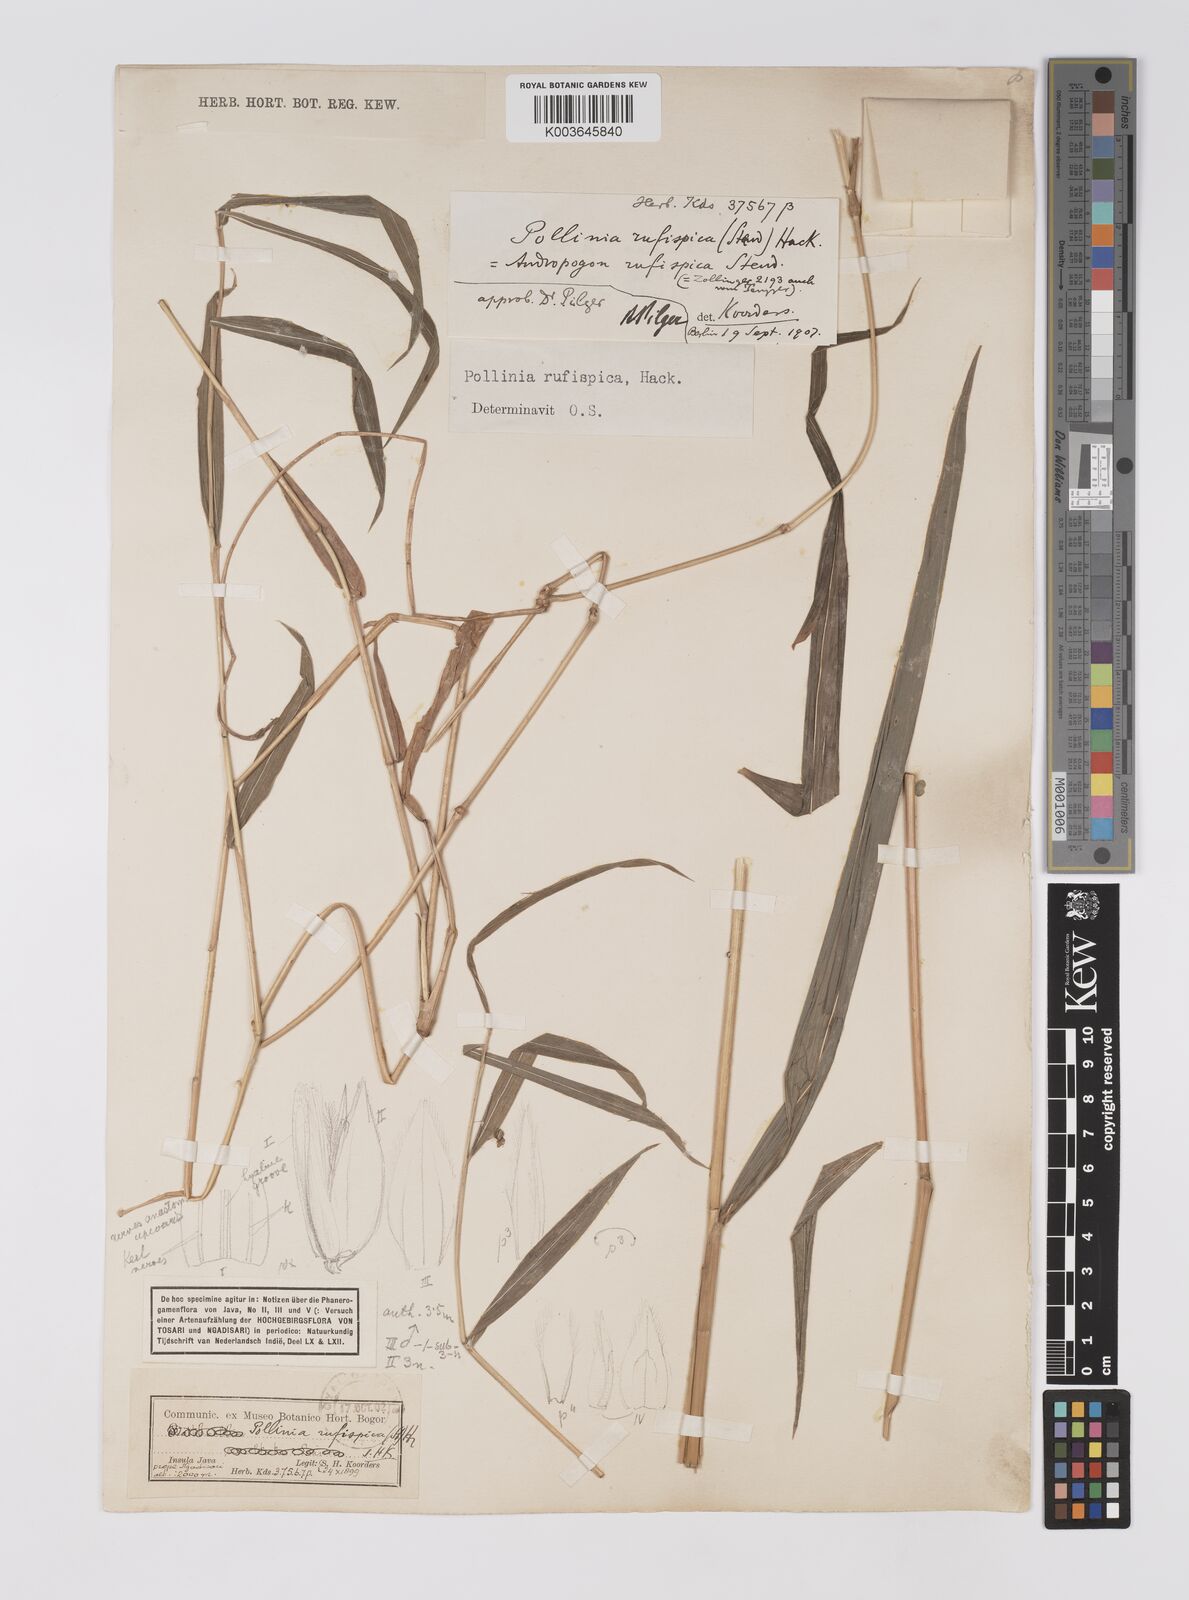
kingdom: Plantae
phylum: Tracheophyta
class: Liliopsida
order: Poales
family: Poaceae
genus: Microstegium
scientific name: Microstegium rufispicum
